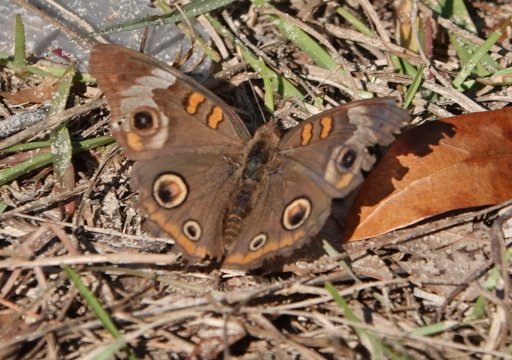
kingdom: Animalia
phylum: Arthropoda
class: Insecta
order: Lepidoptera
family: Nymphalidae
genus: Junonia
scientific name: Junonia coenia
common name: Common Buckeye
